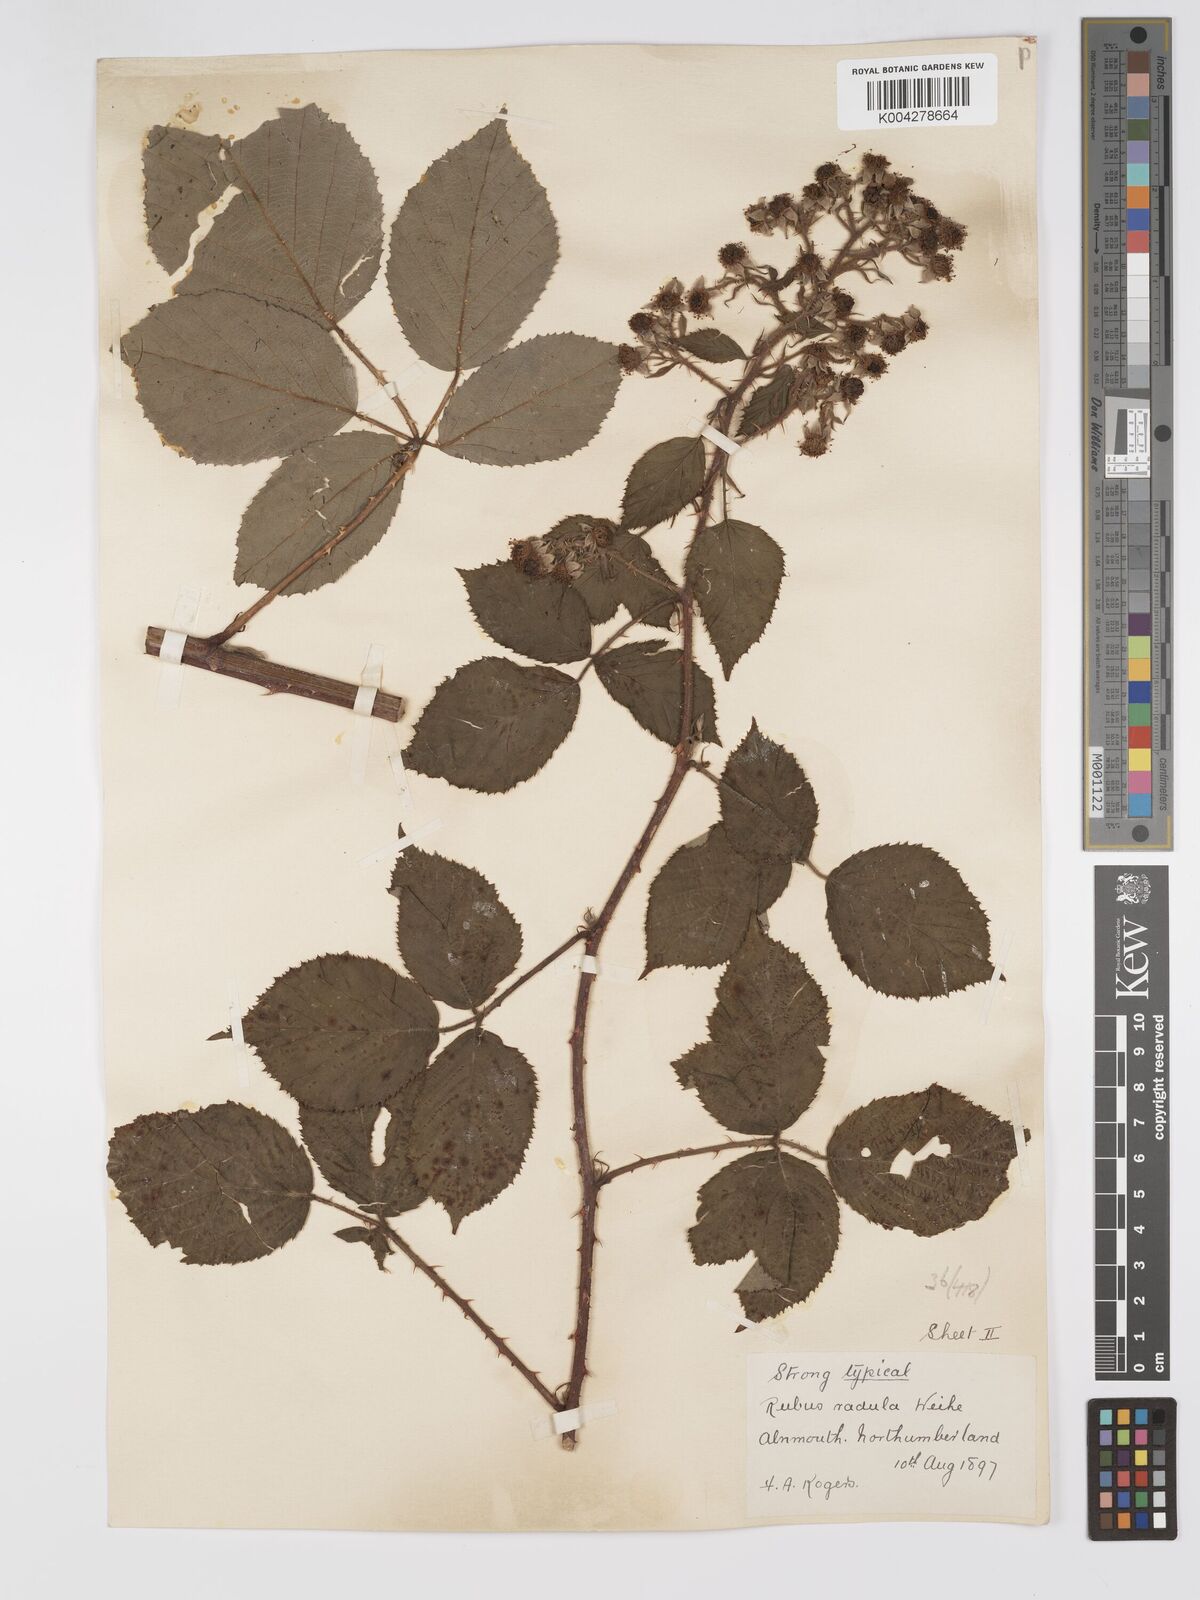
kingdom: Plantae
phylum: Tracheophyta
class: Magnoliopsida
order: Rosales
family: Rosaceae
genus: Rubus
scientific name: Rubus radula
